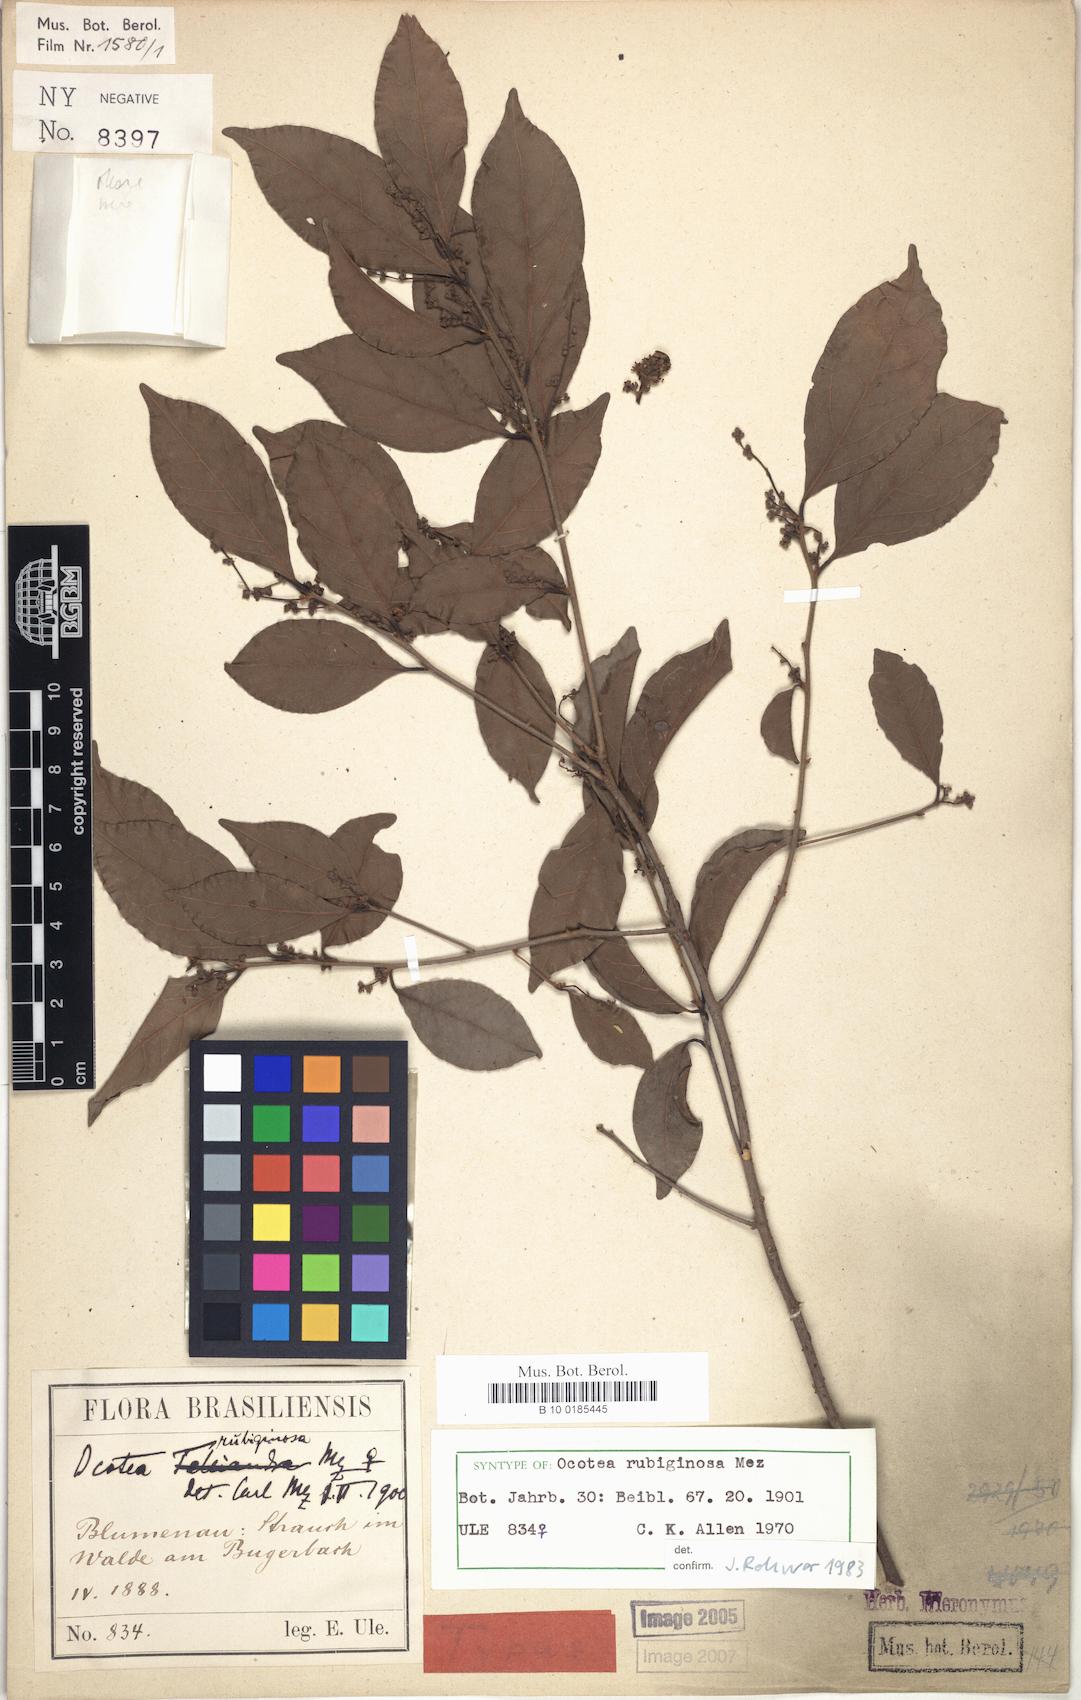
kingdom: Plantae
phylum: Tracheophyta
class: Magnoliopsida
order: Laurales
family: Lauraceae
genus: Ocotea
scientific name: Ocotea dispersa
